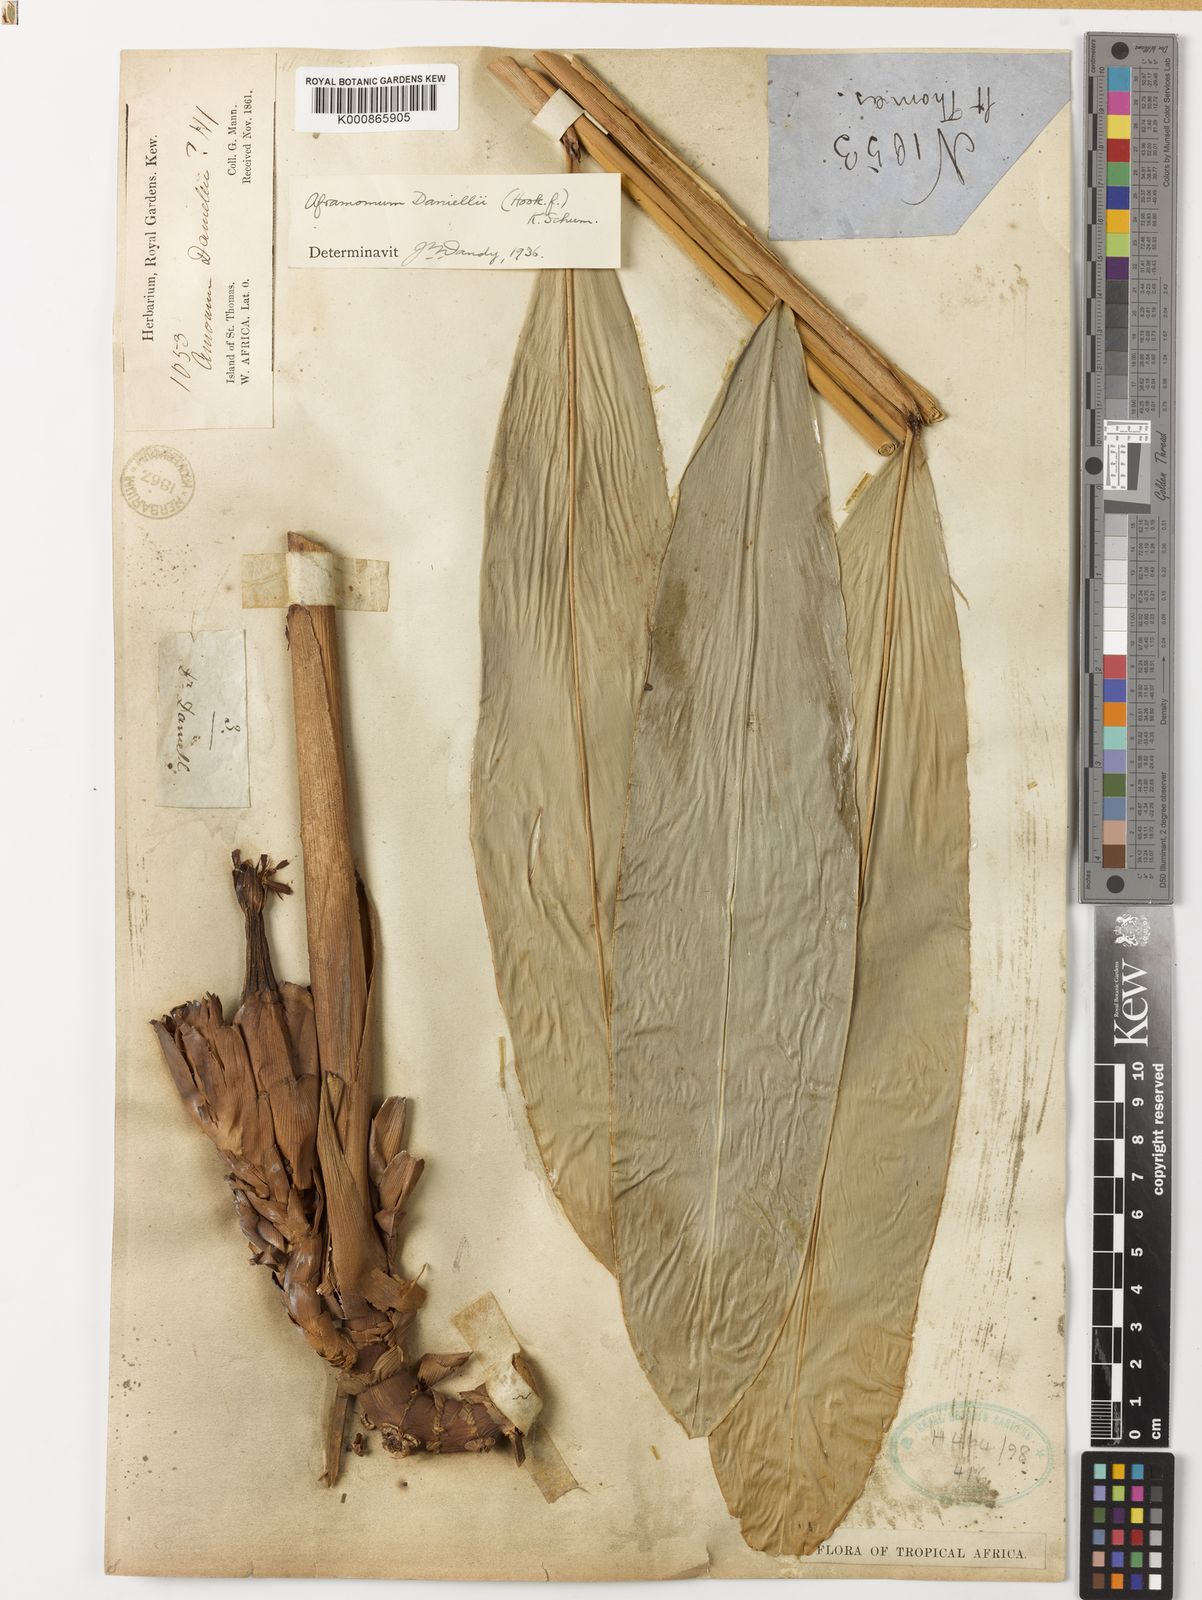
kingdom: Plantae
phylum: Tracheophyta
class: Liliopsida
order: Zingiberales
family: Zingiberaceae
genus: Aframomum
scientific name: Aframomum daniellii
